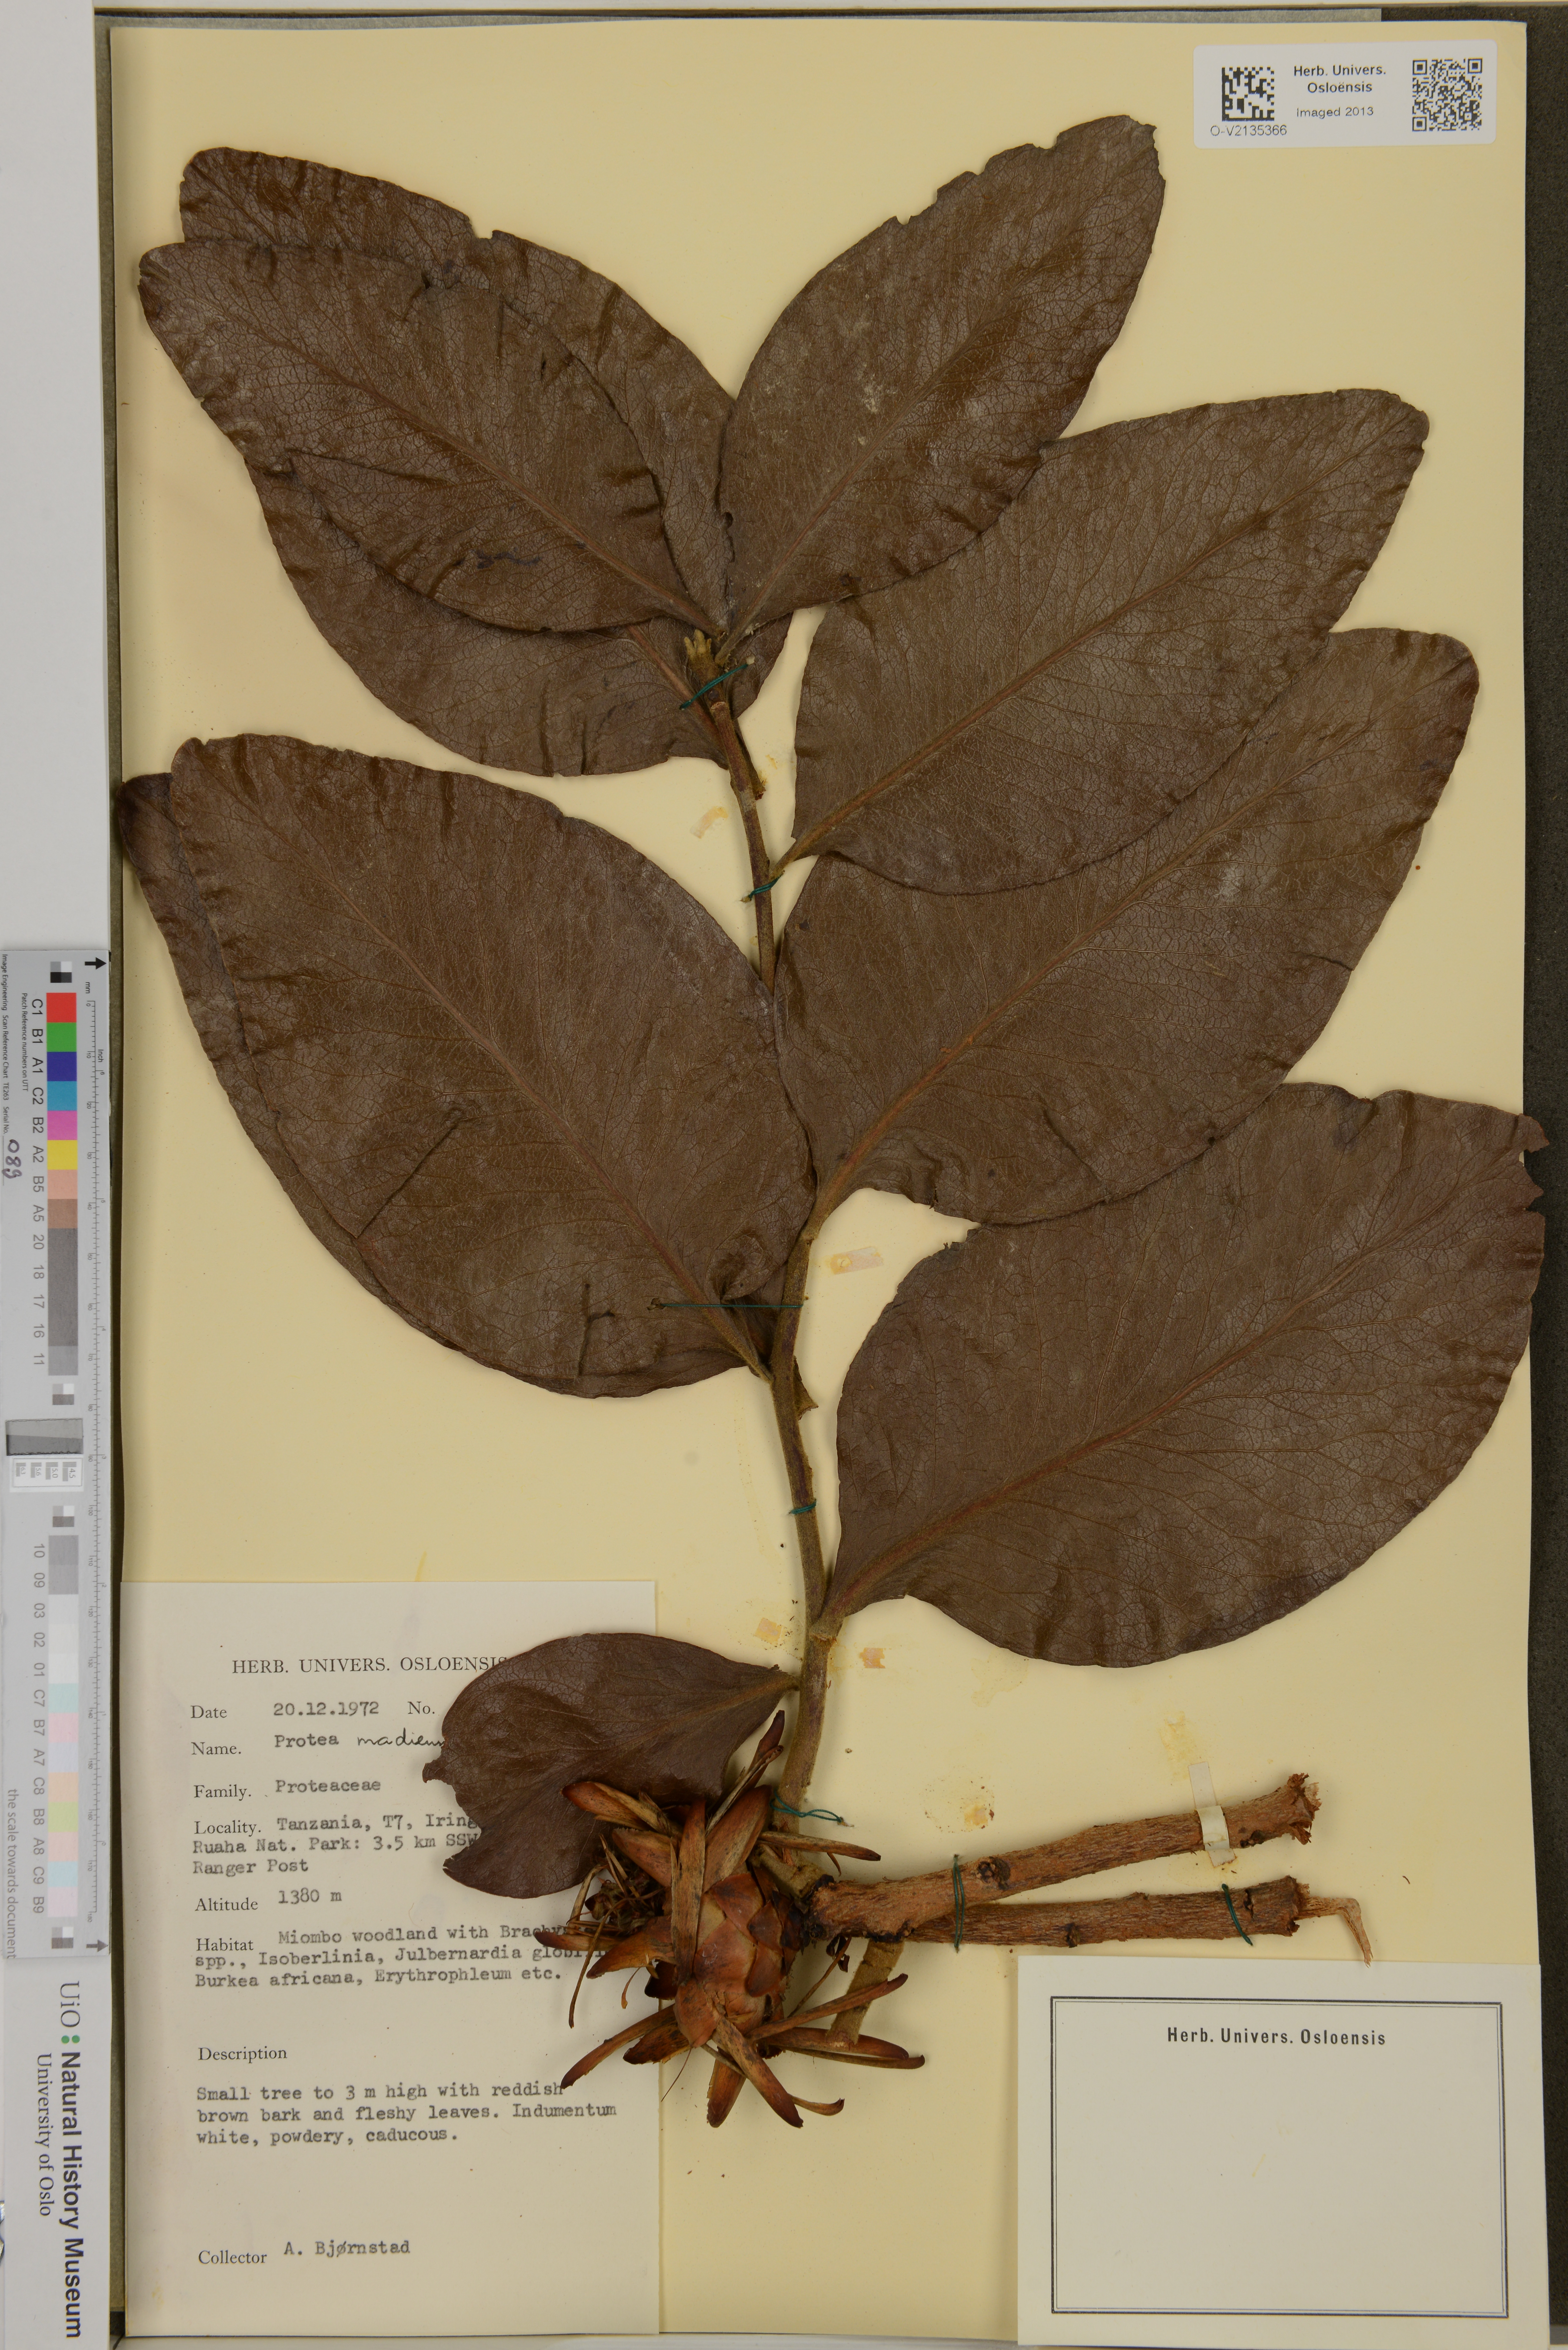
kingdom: Plantae
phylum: Tracheophyta
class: Magnoliopsida
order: Proteales
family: Proteaceae
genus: Protea
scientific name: Protea madiensis
